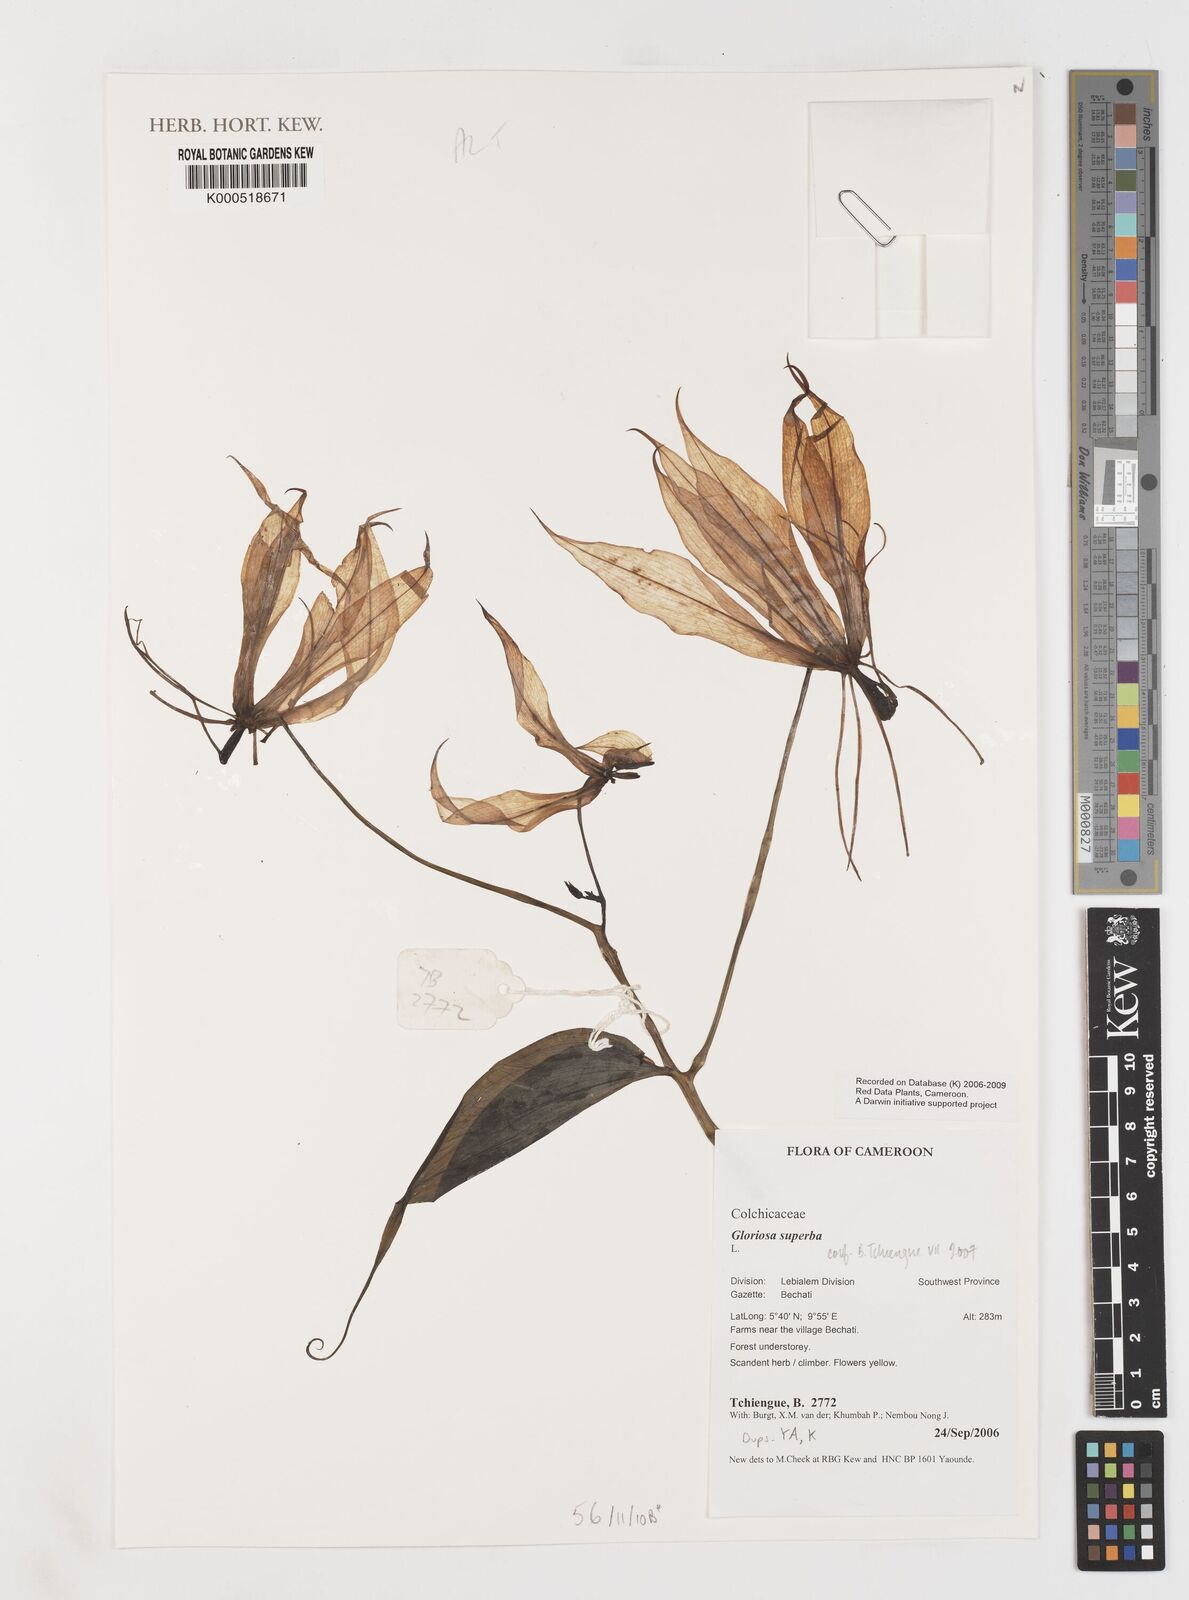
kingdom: Plantae
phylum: Tracheophyta
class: Liliopsida
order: Liliales
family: Colchicaceae
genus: Gloriosa
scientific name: Gloriosa superba
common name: Flame lily
